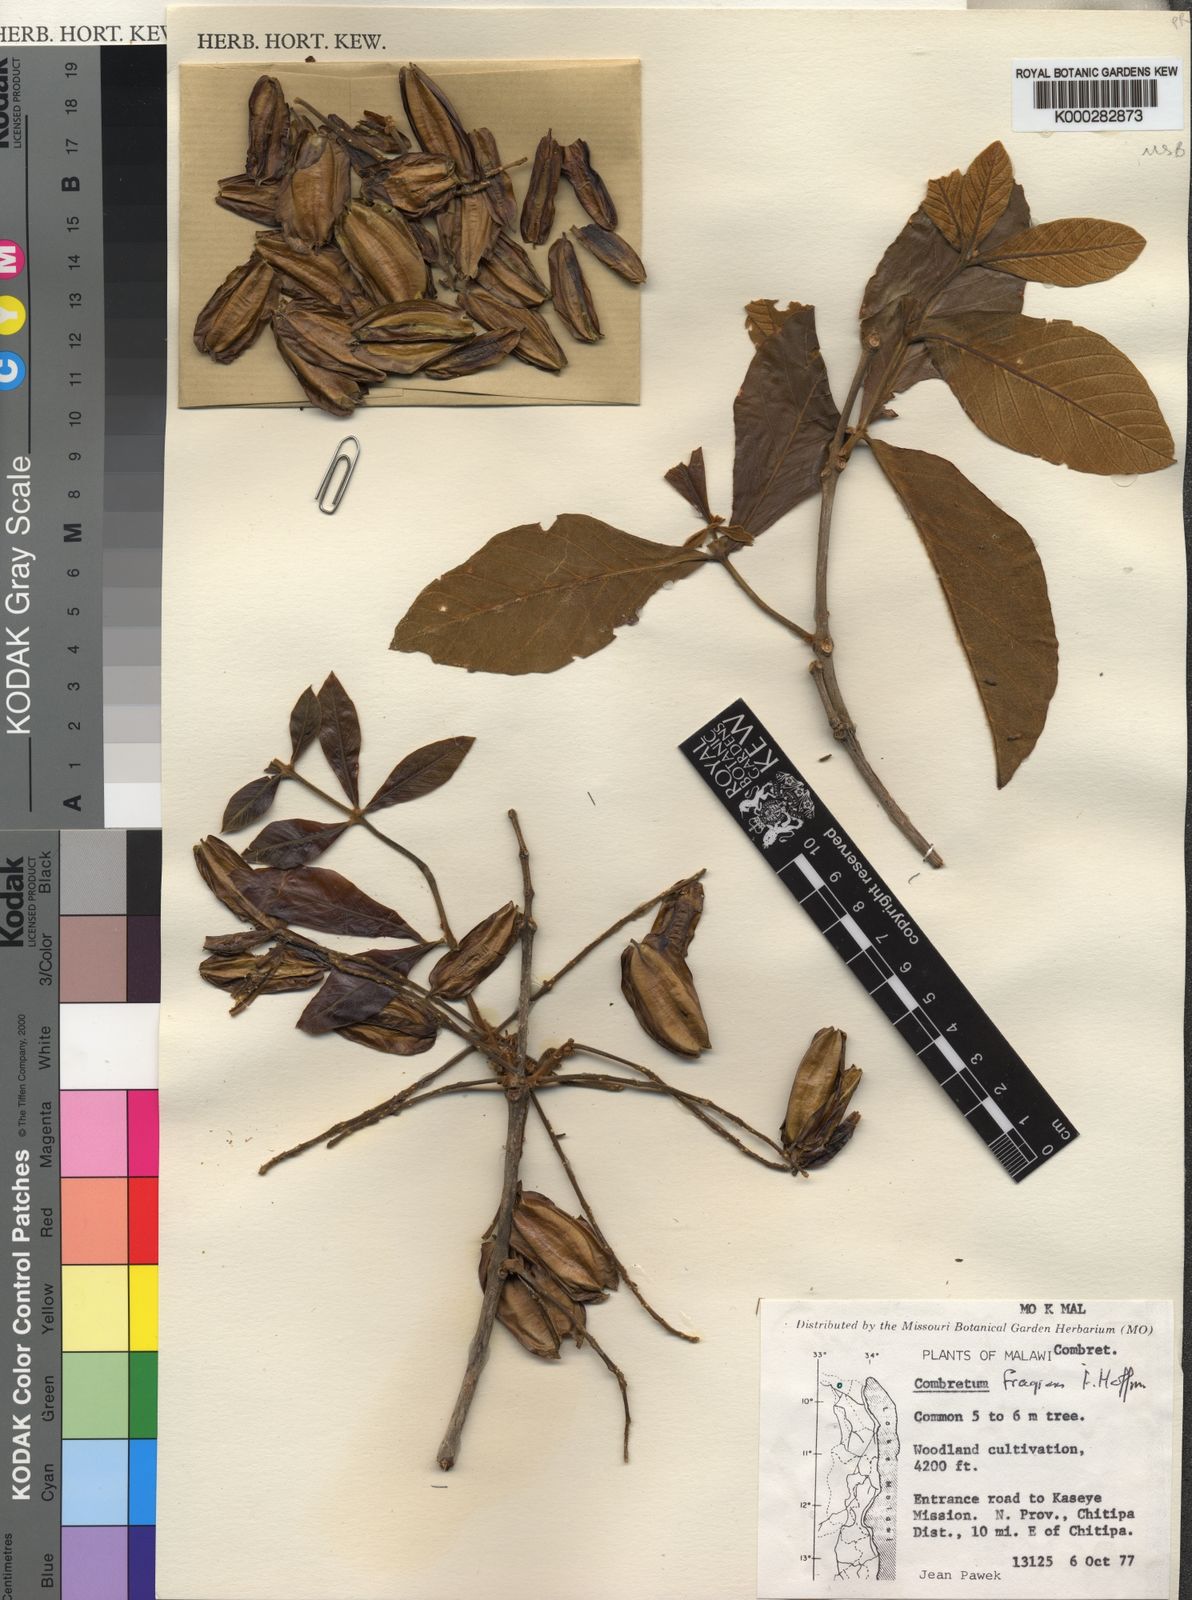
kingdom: Plantae
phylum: Tracheophyta
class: Magnoliopsida
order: Myrtales
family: Combretaceae
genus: Combretum
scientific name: Combretum adenogonium
